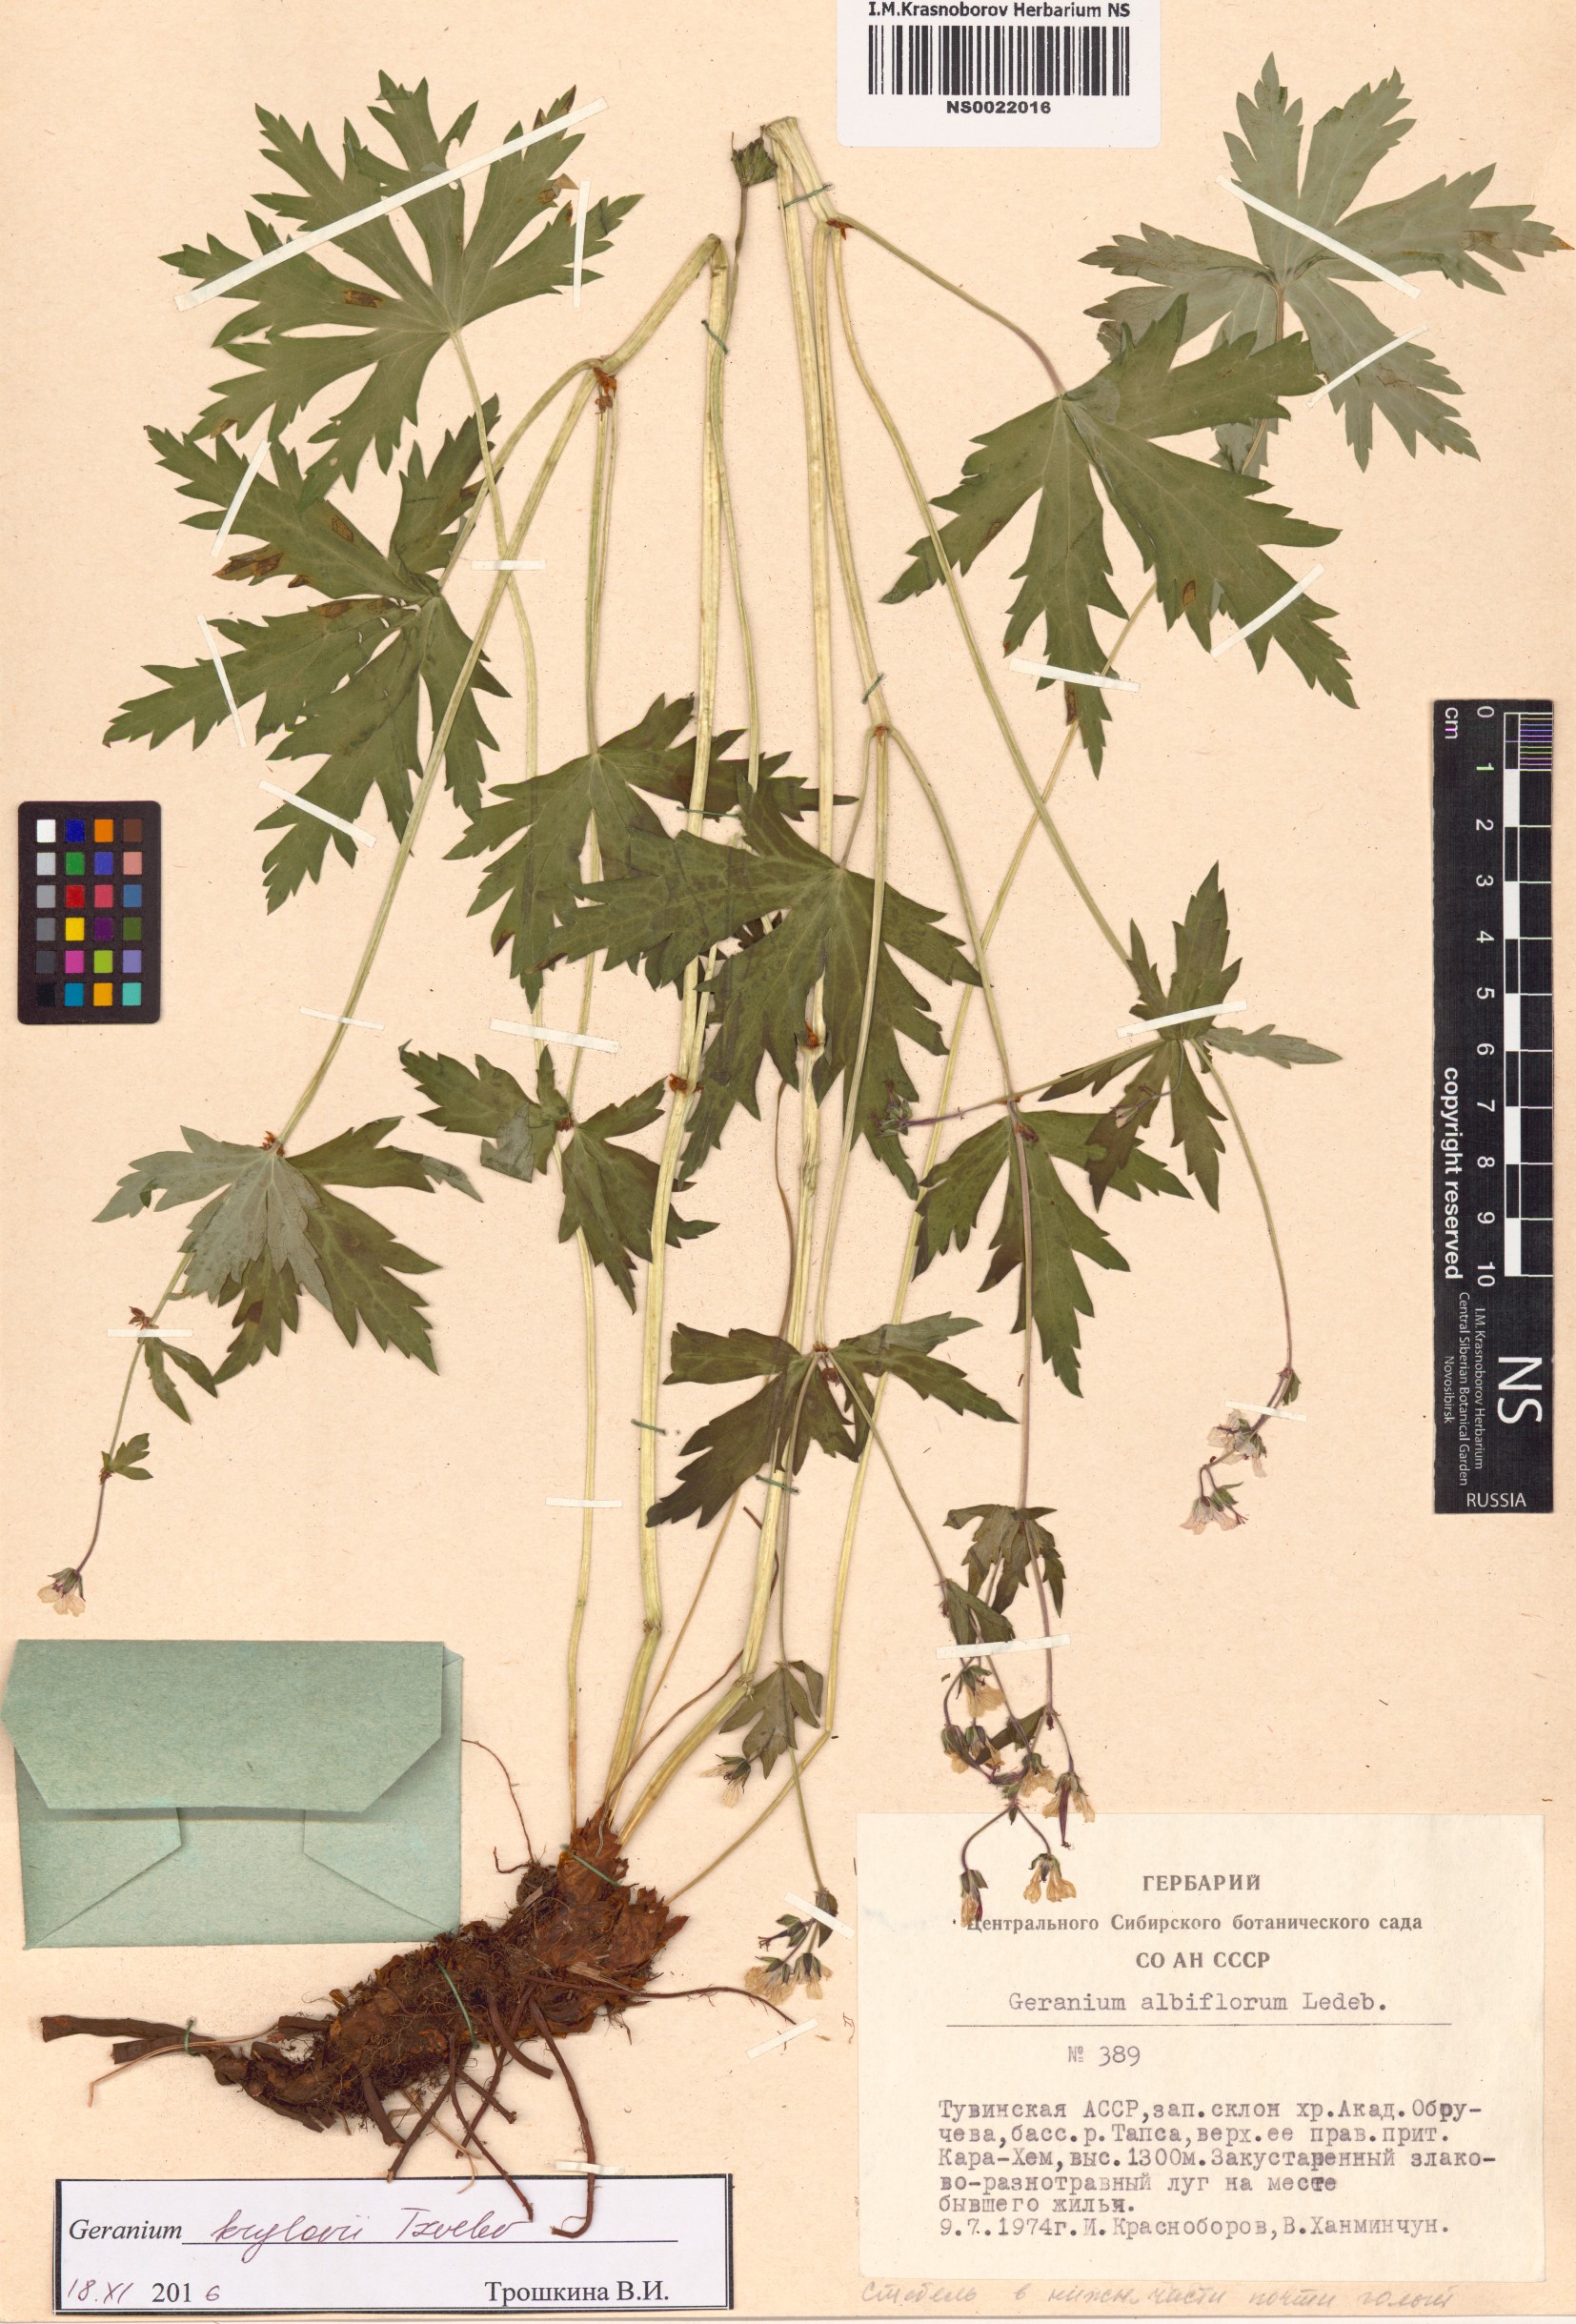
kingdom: Plantae
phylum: Tracheophyta
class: Magnoliopsida
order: Geraniales
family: Geraniaceae
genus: Geranium
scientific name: Geranium sylvaticum
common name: Wood crane's-bill
